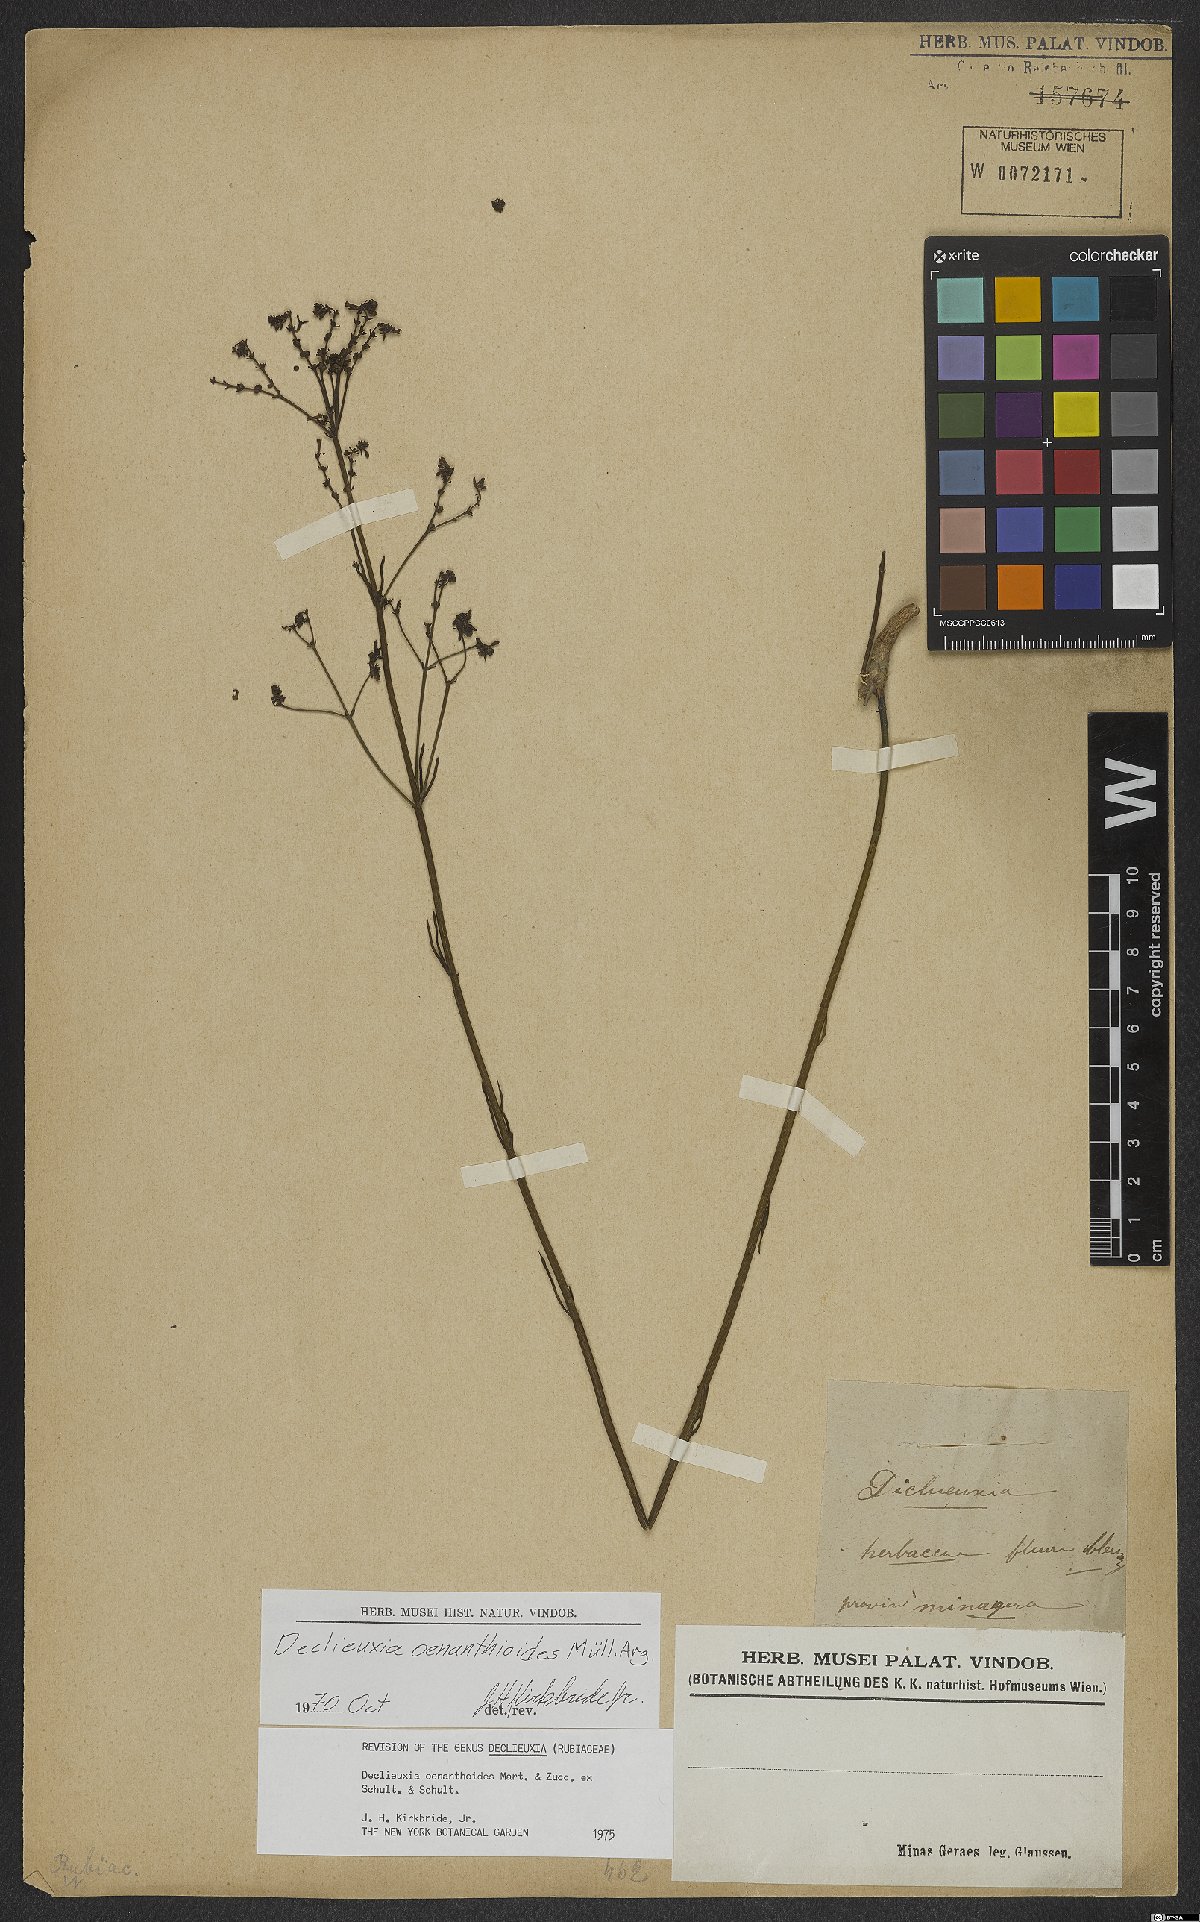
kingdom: Plantae
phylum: Tracheophyta
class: Magnoliopsida
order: Gentianales
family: Rubiaceae
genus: Declieuxia
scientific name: Declieuxia oenanthoides
